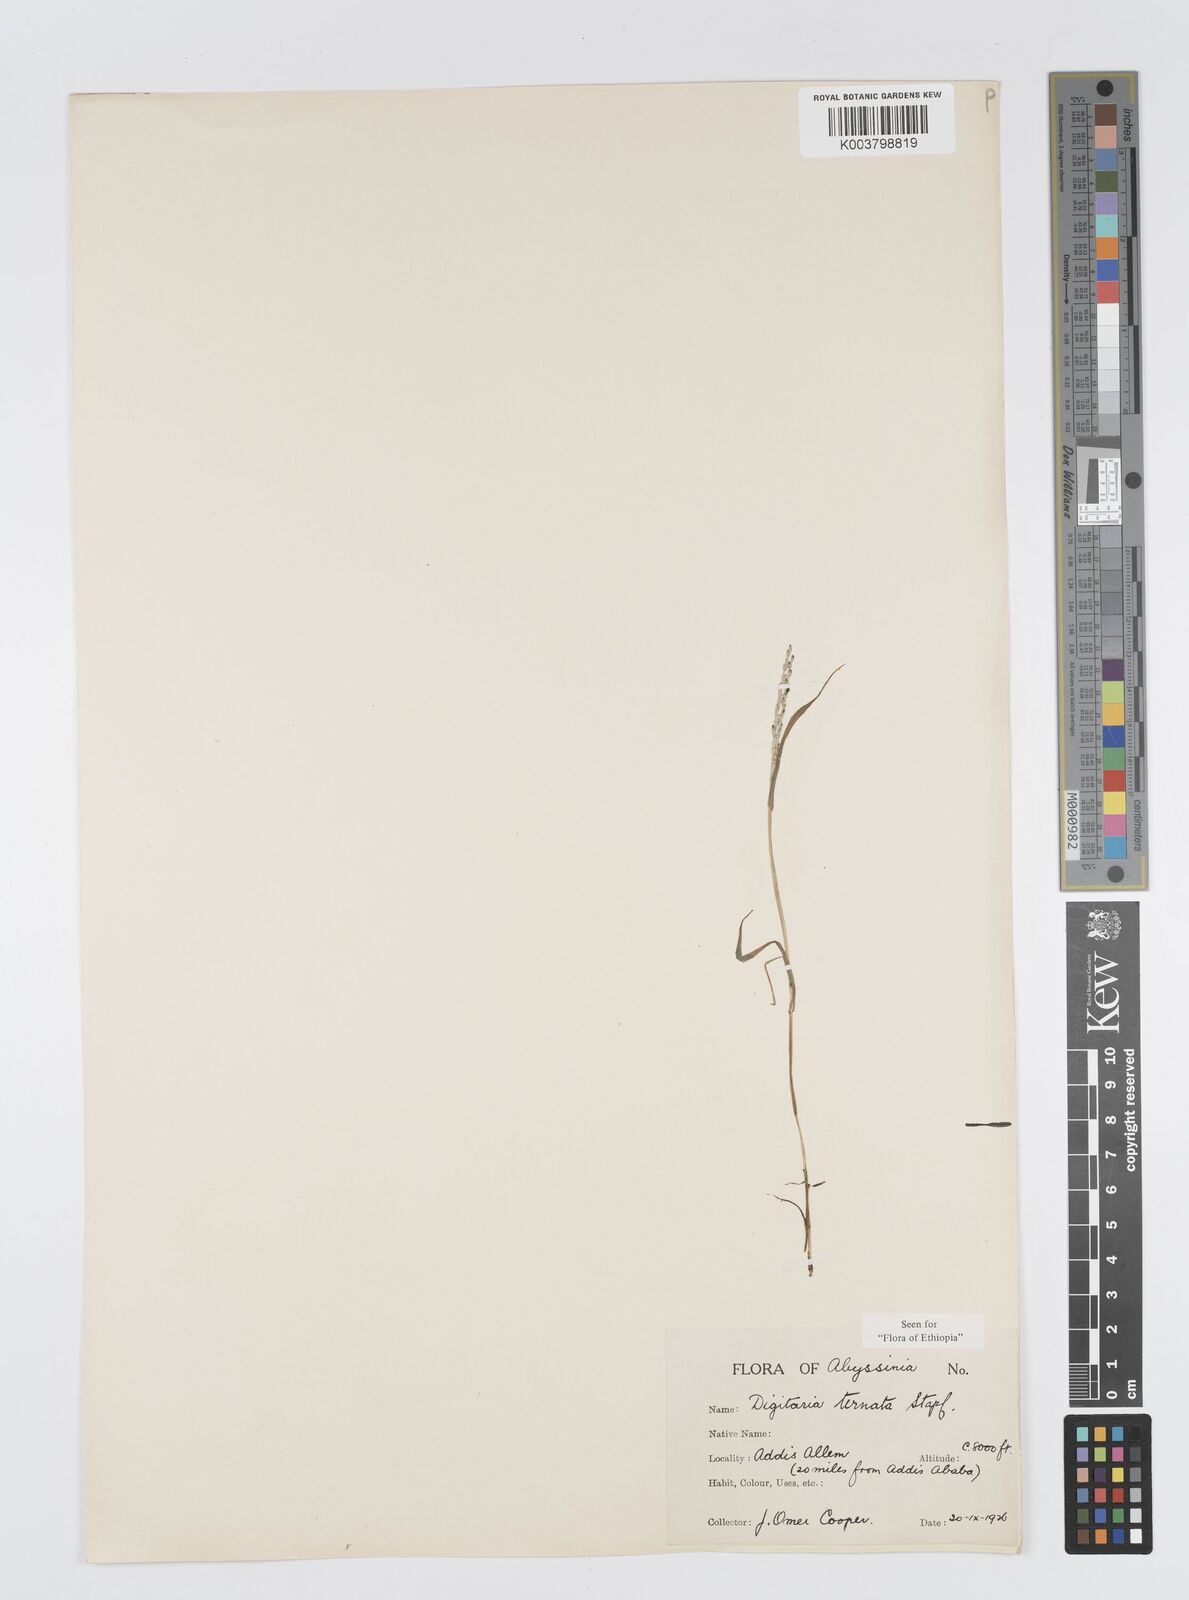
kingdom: Plantae
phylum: Tracheophyta
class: Liliopsida
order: Poales
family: Poaceae
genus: Digitaria
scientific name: Digitaria ternata
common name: Blackseed crabgrass
